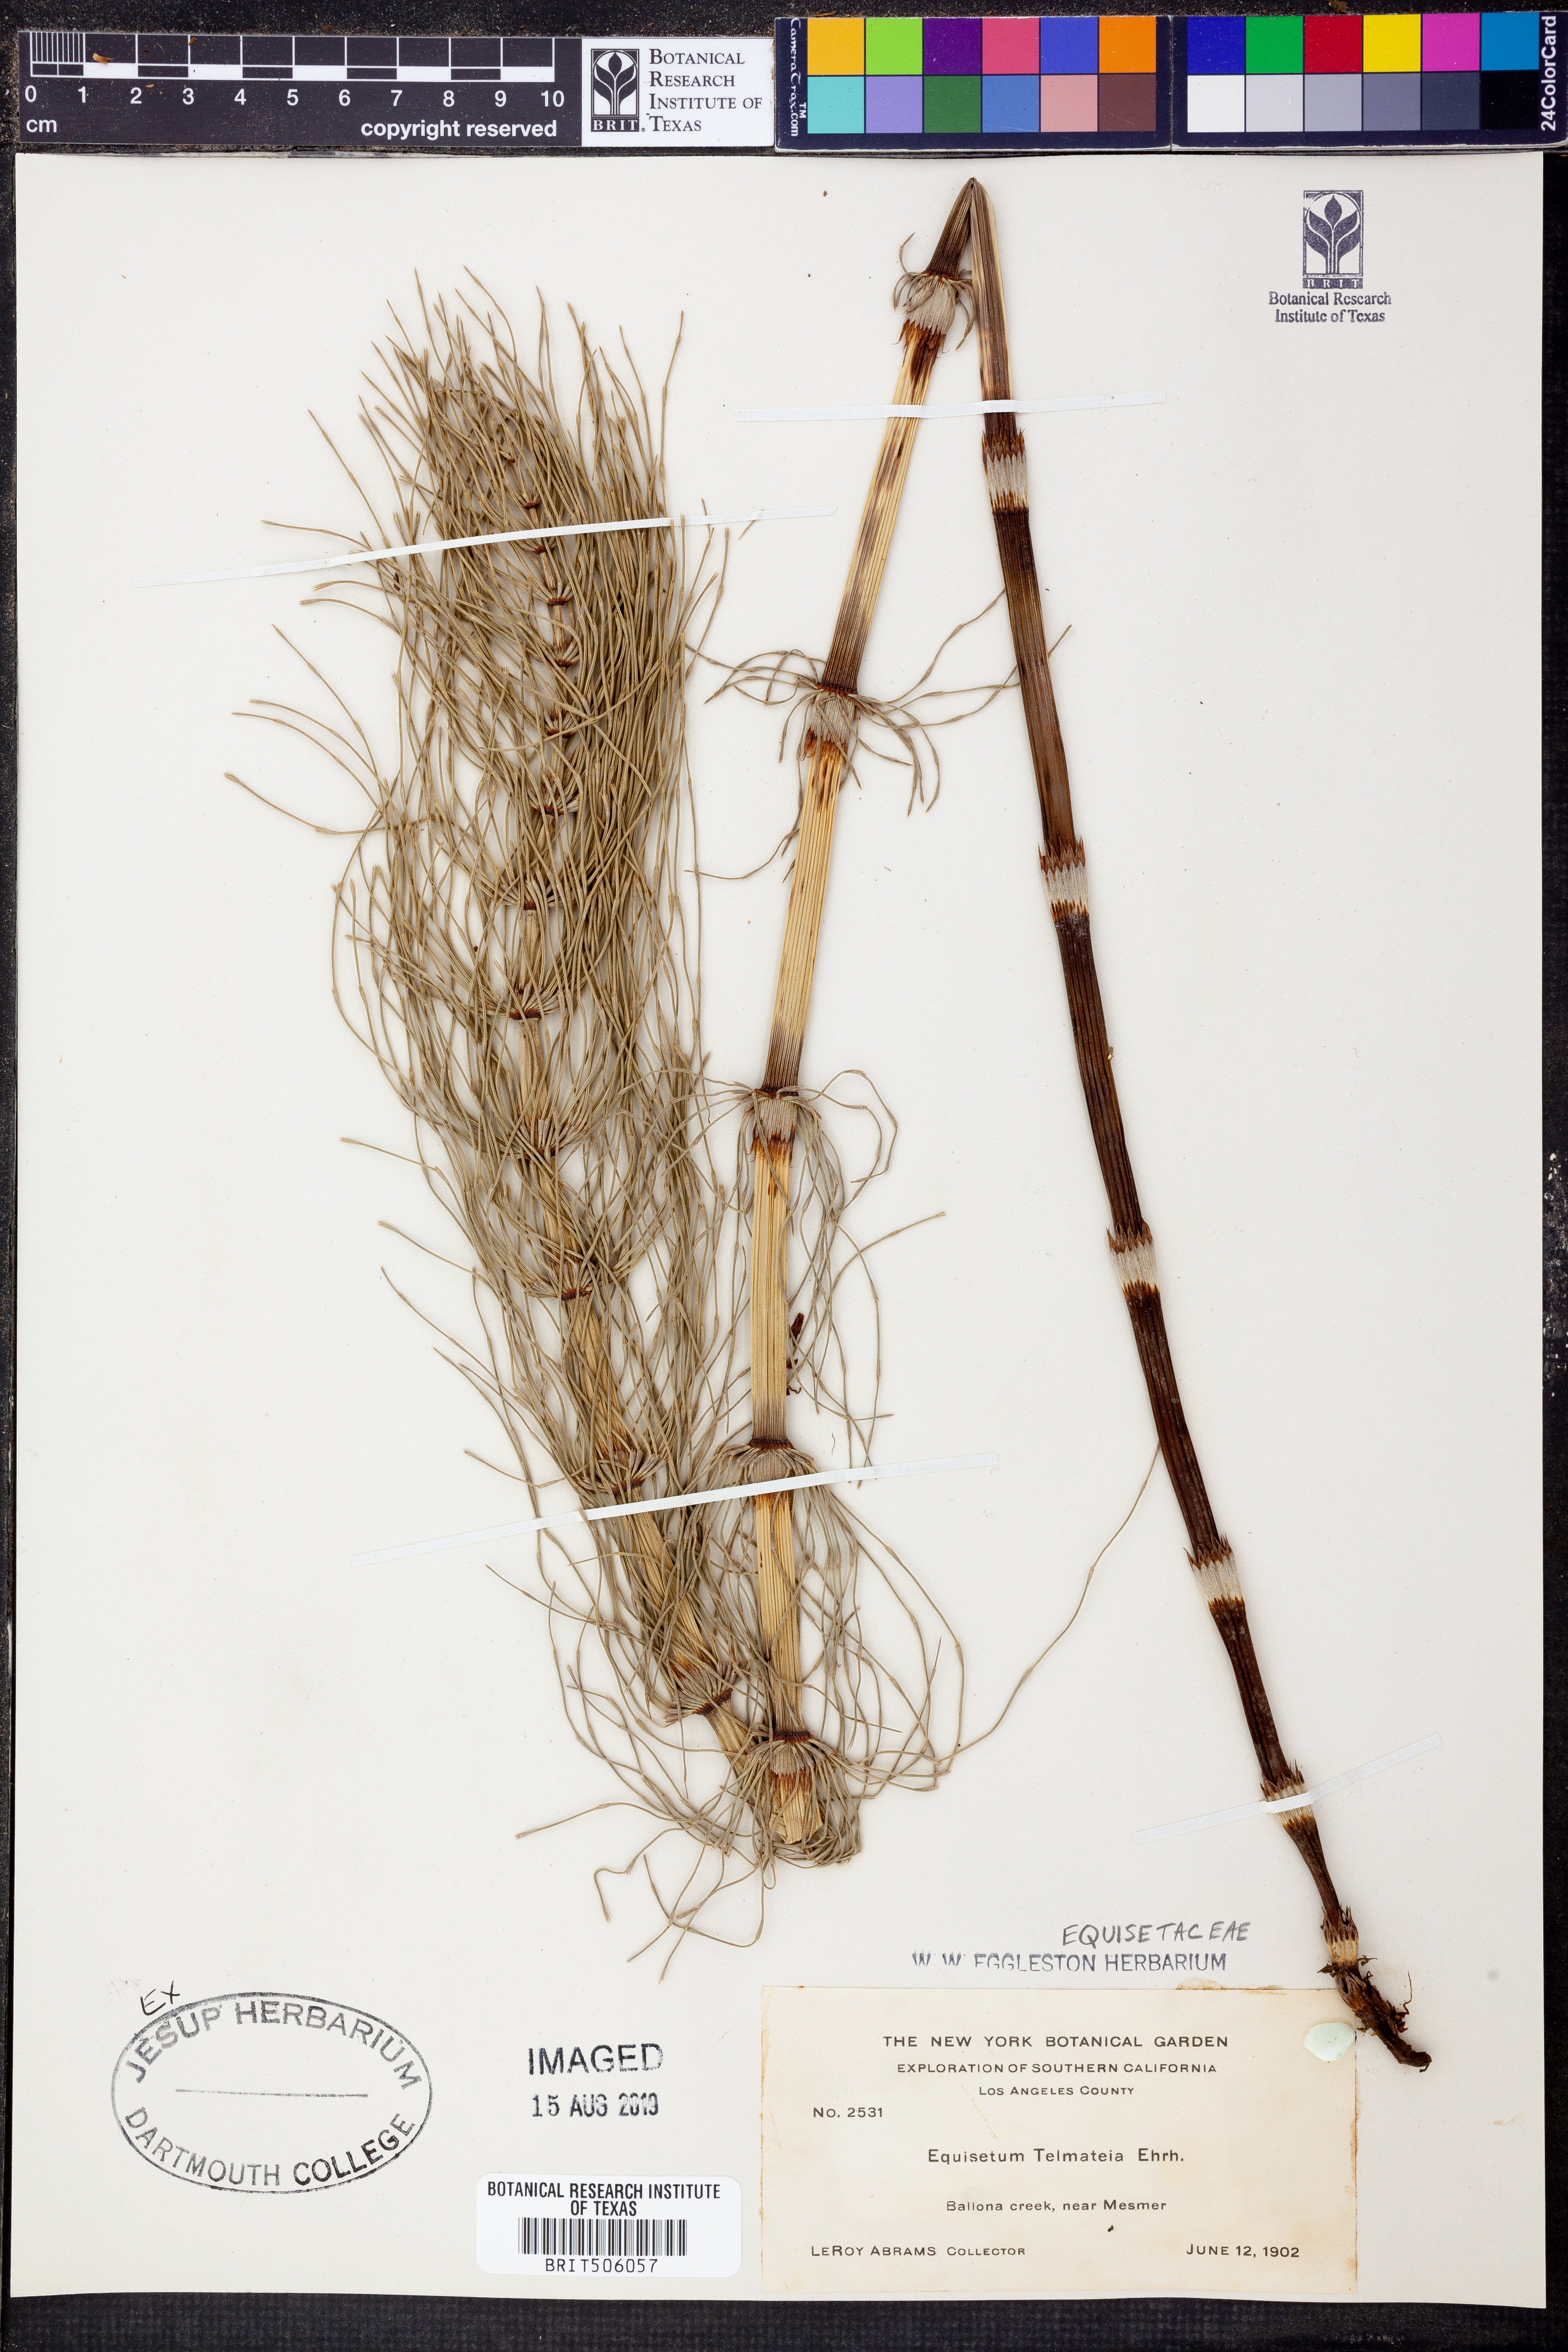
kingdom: Plantae
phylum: Tracheophyta
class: Polypodiopsida
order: Equisetales
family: Equisetaceae
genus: Equisetum
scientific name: Equisetum telmateia
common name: Great horsetail
